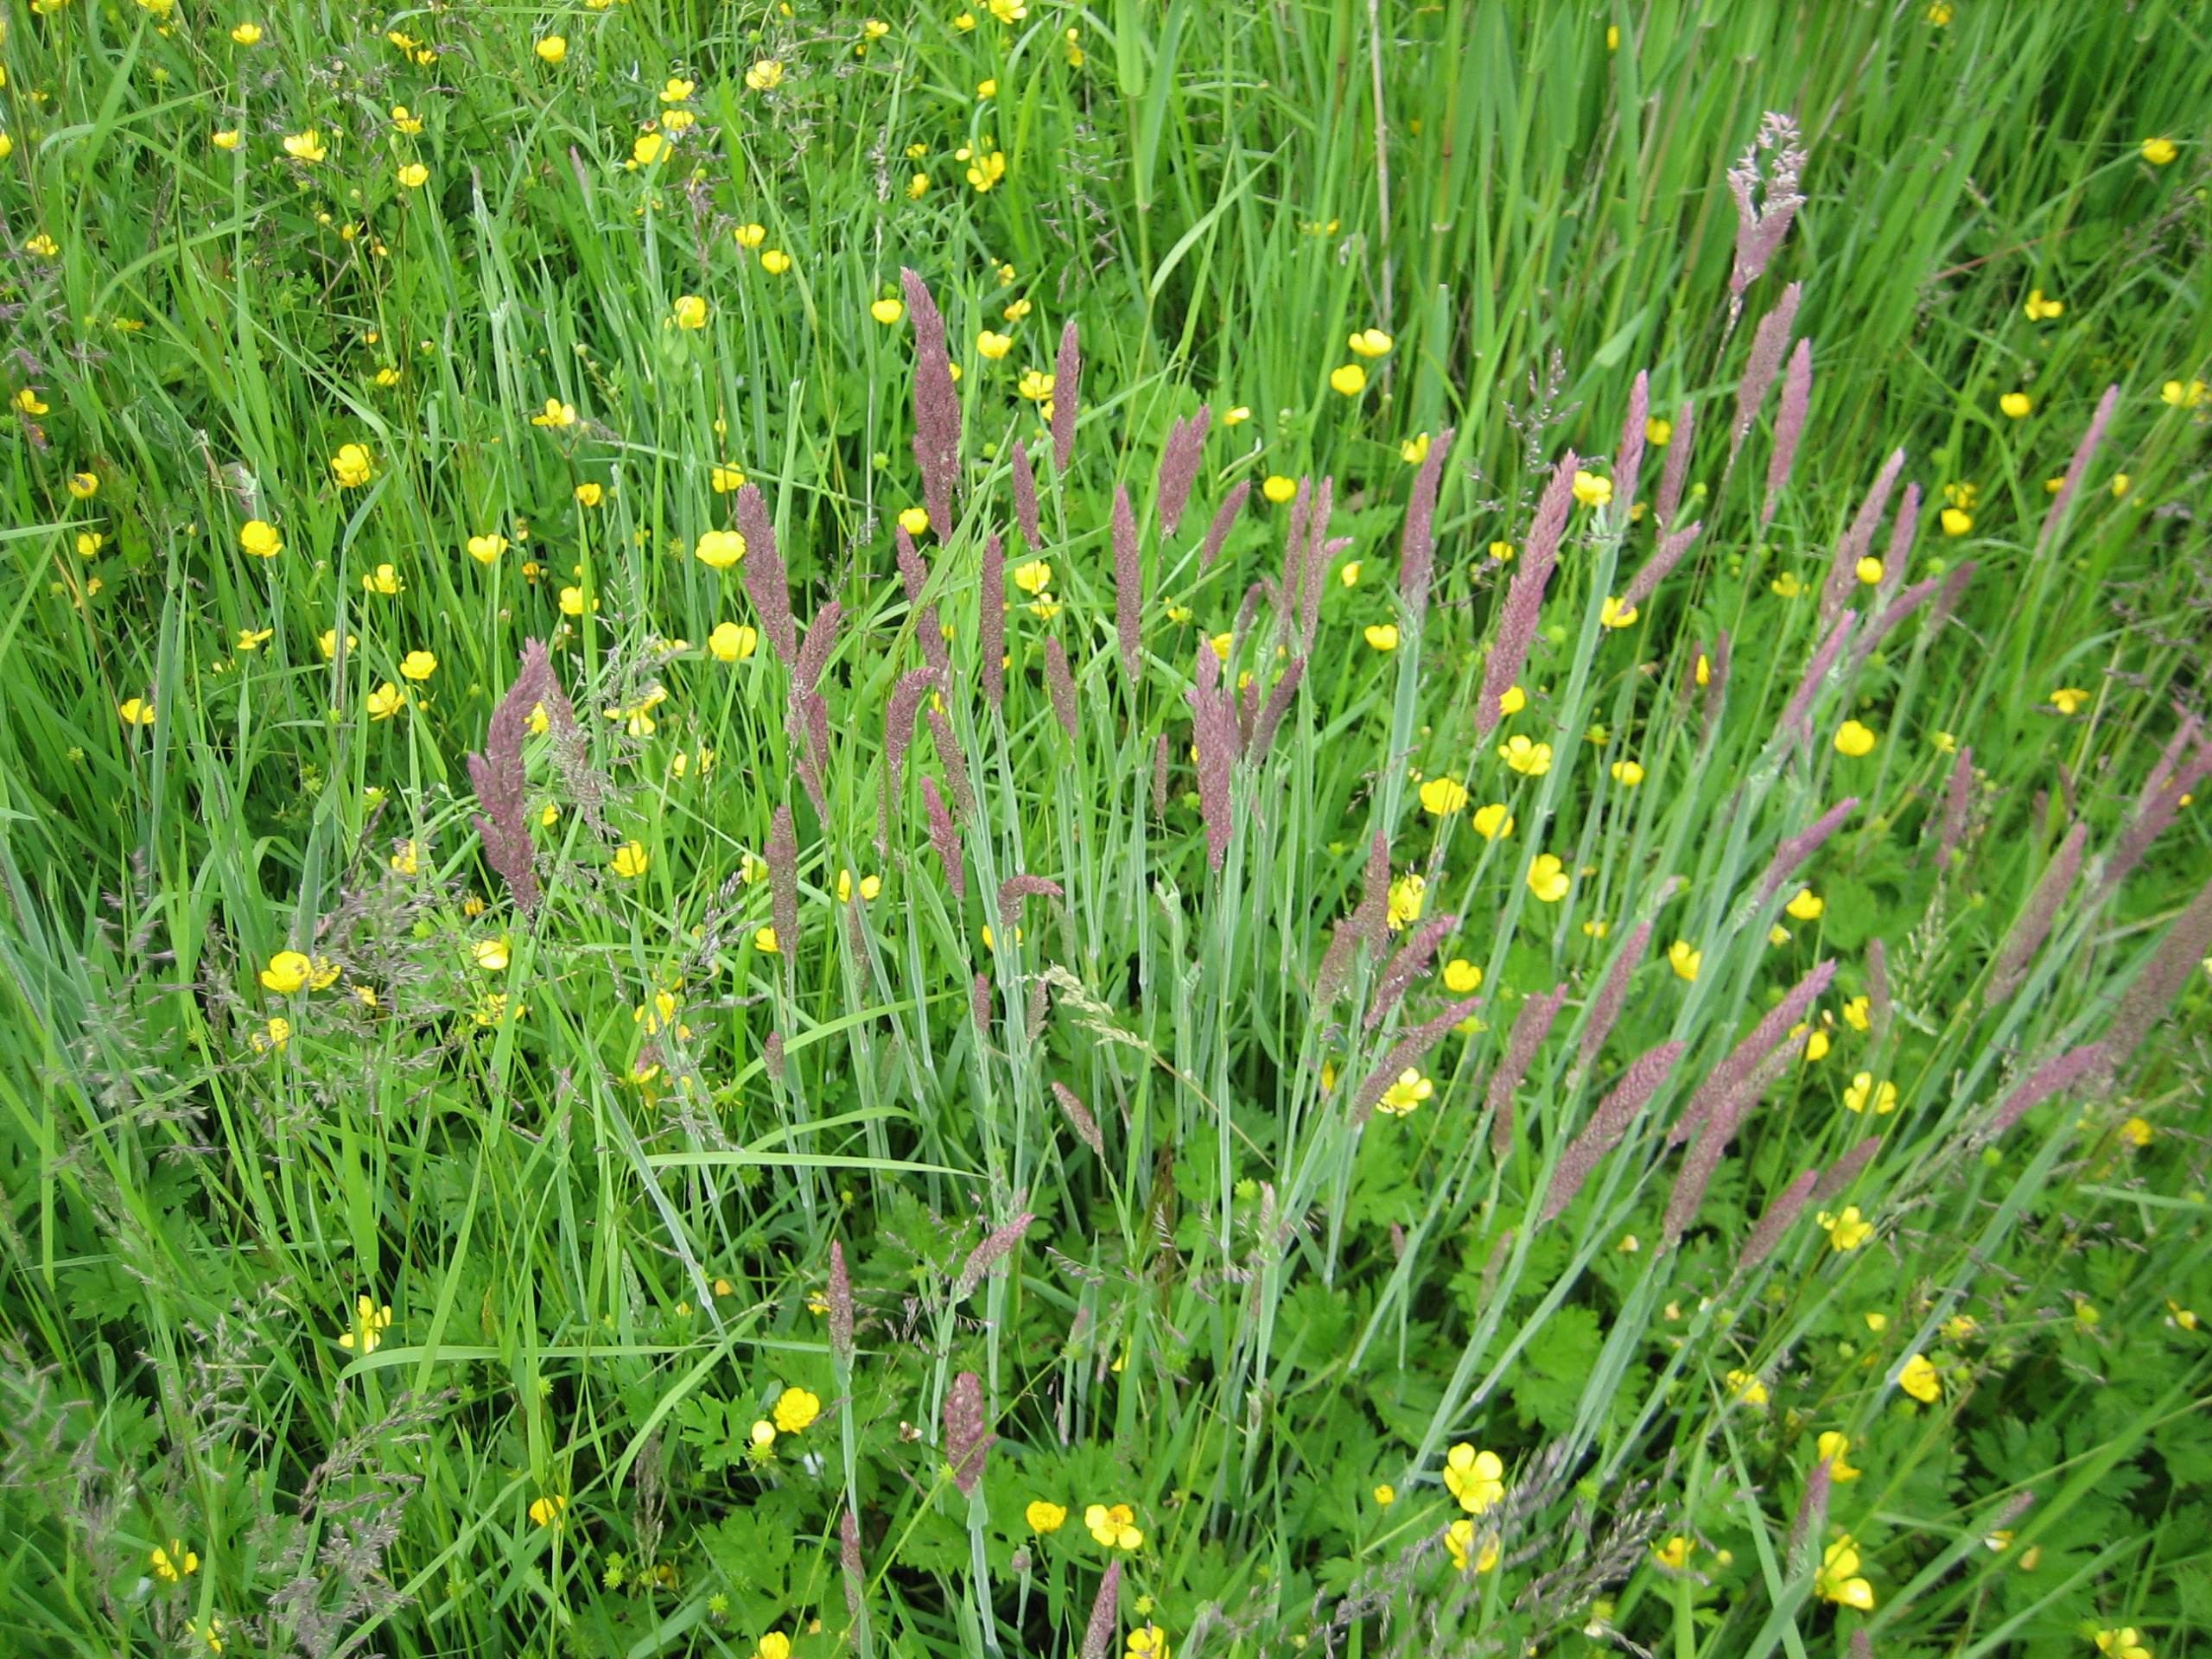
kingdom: Plantae
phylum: Tracheophyta
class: Liliopsida
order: Poales
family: Poaceae
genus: Holcus
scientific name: Holcus lanatus
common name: Fløjlsgræs
